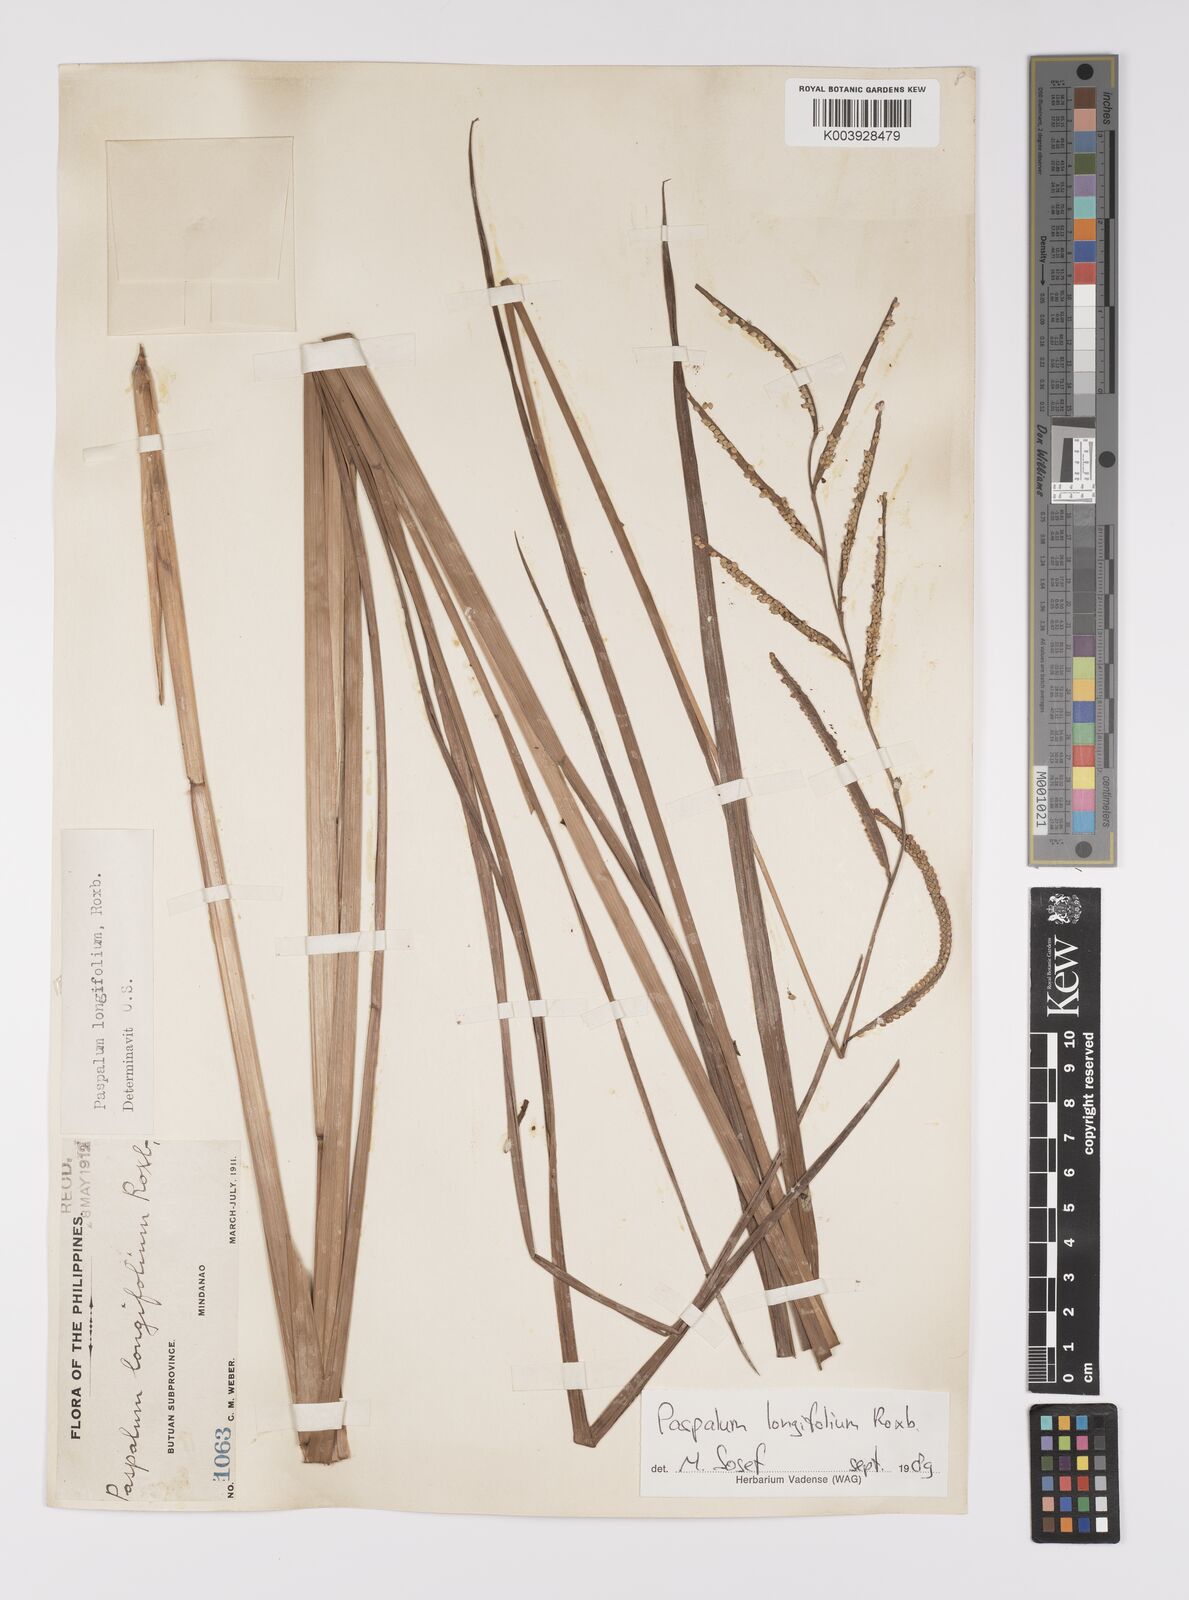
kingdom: Plantae
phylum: Tracheophyta
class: Liliopsida
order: Poales
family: Poaceae
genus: Paspalum
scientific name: Paspalum sumatrense
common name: Long-leaved paspalum
